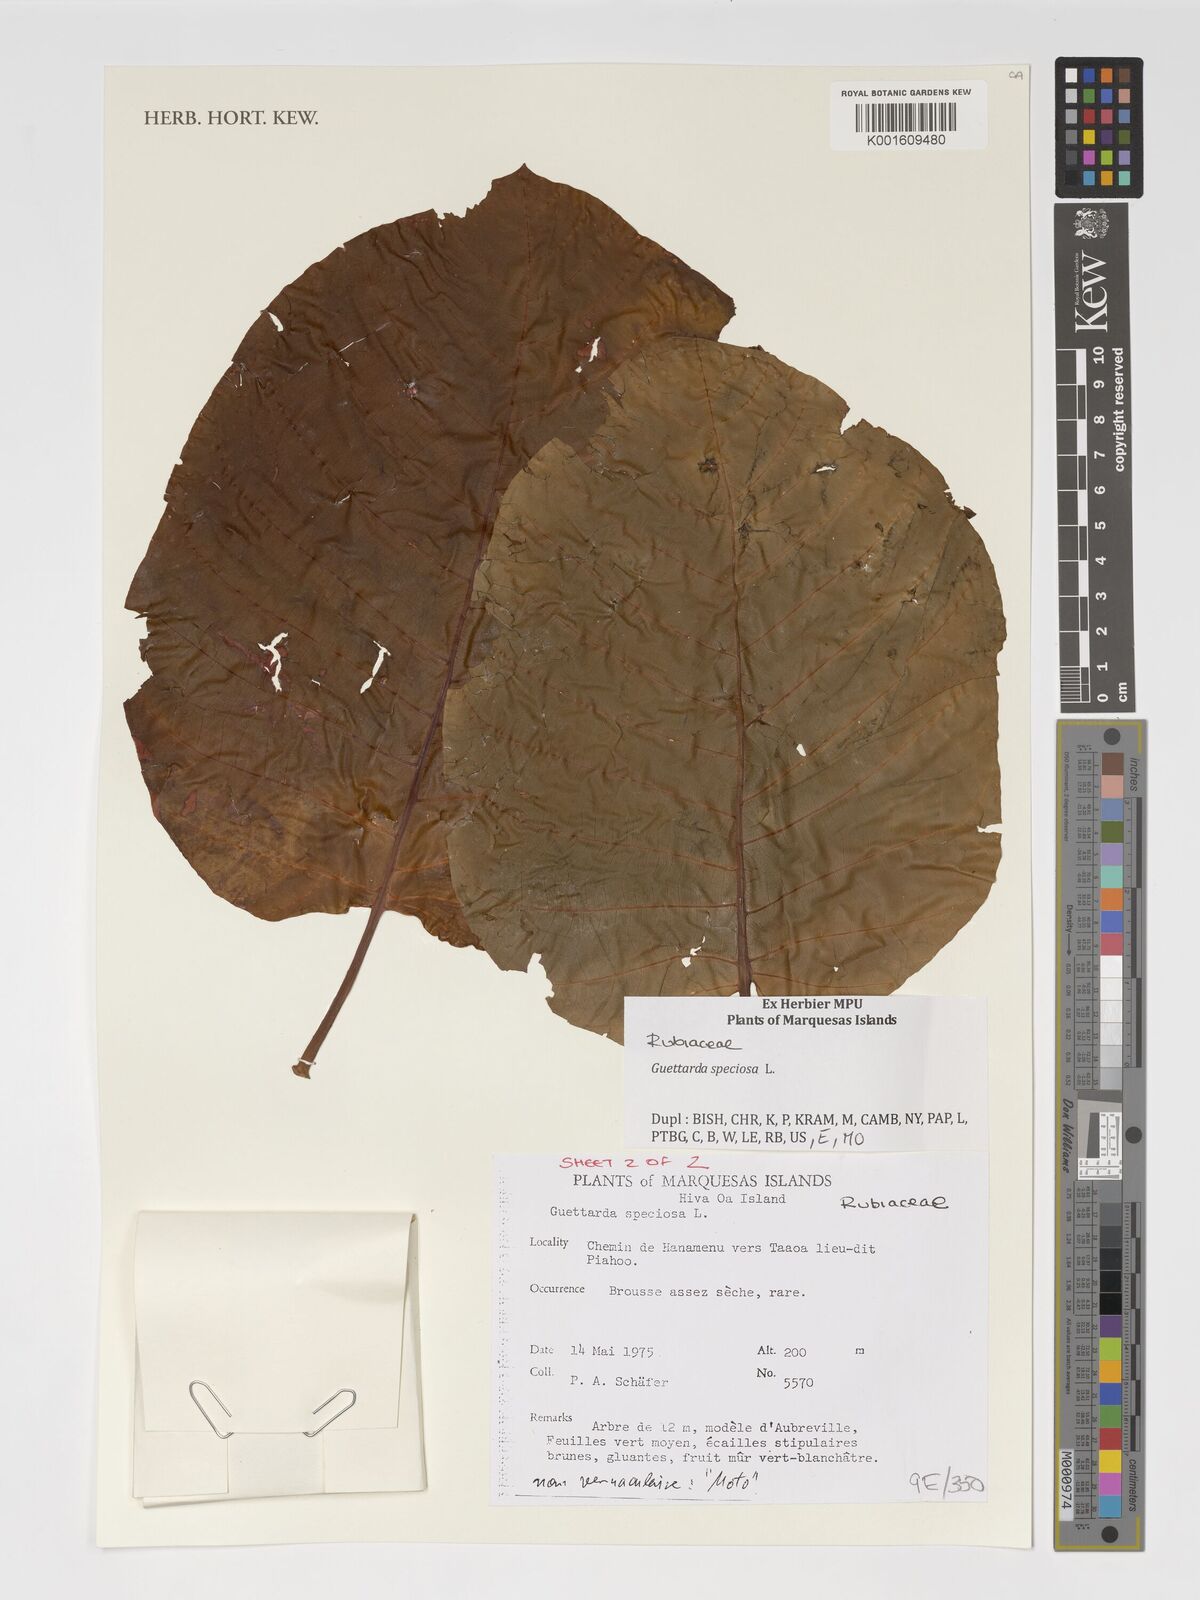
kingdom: Plantae
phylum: Tracheophyta
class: Magnoliopsida
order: Gentianales
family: Rubiaceae
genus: Guettarda
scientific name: Guettarda speciosa
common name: Sea randa
